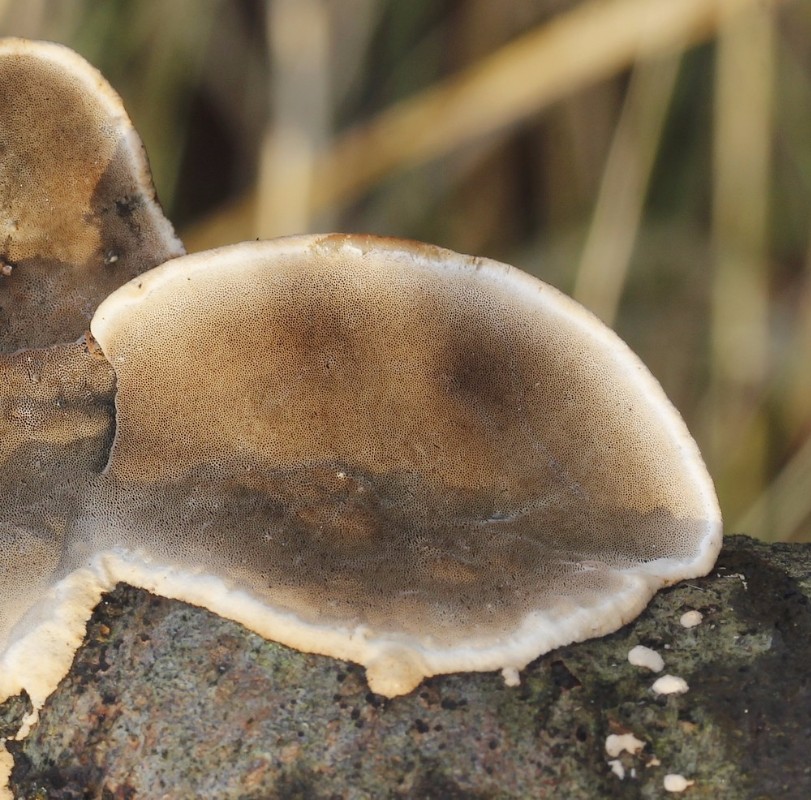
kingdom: Fungi
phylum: Basidiomycota
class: Agaricomycetes
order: Polyporales
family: Incrustoporiaceae
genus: Skeletocutis
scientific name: Skeletocutis nemoralis
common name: stor krystalporesvamp
